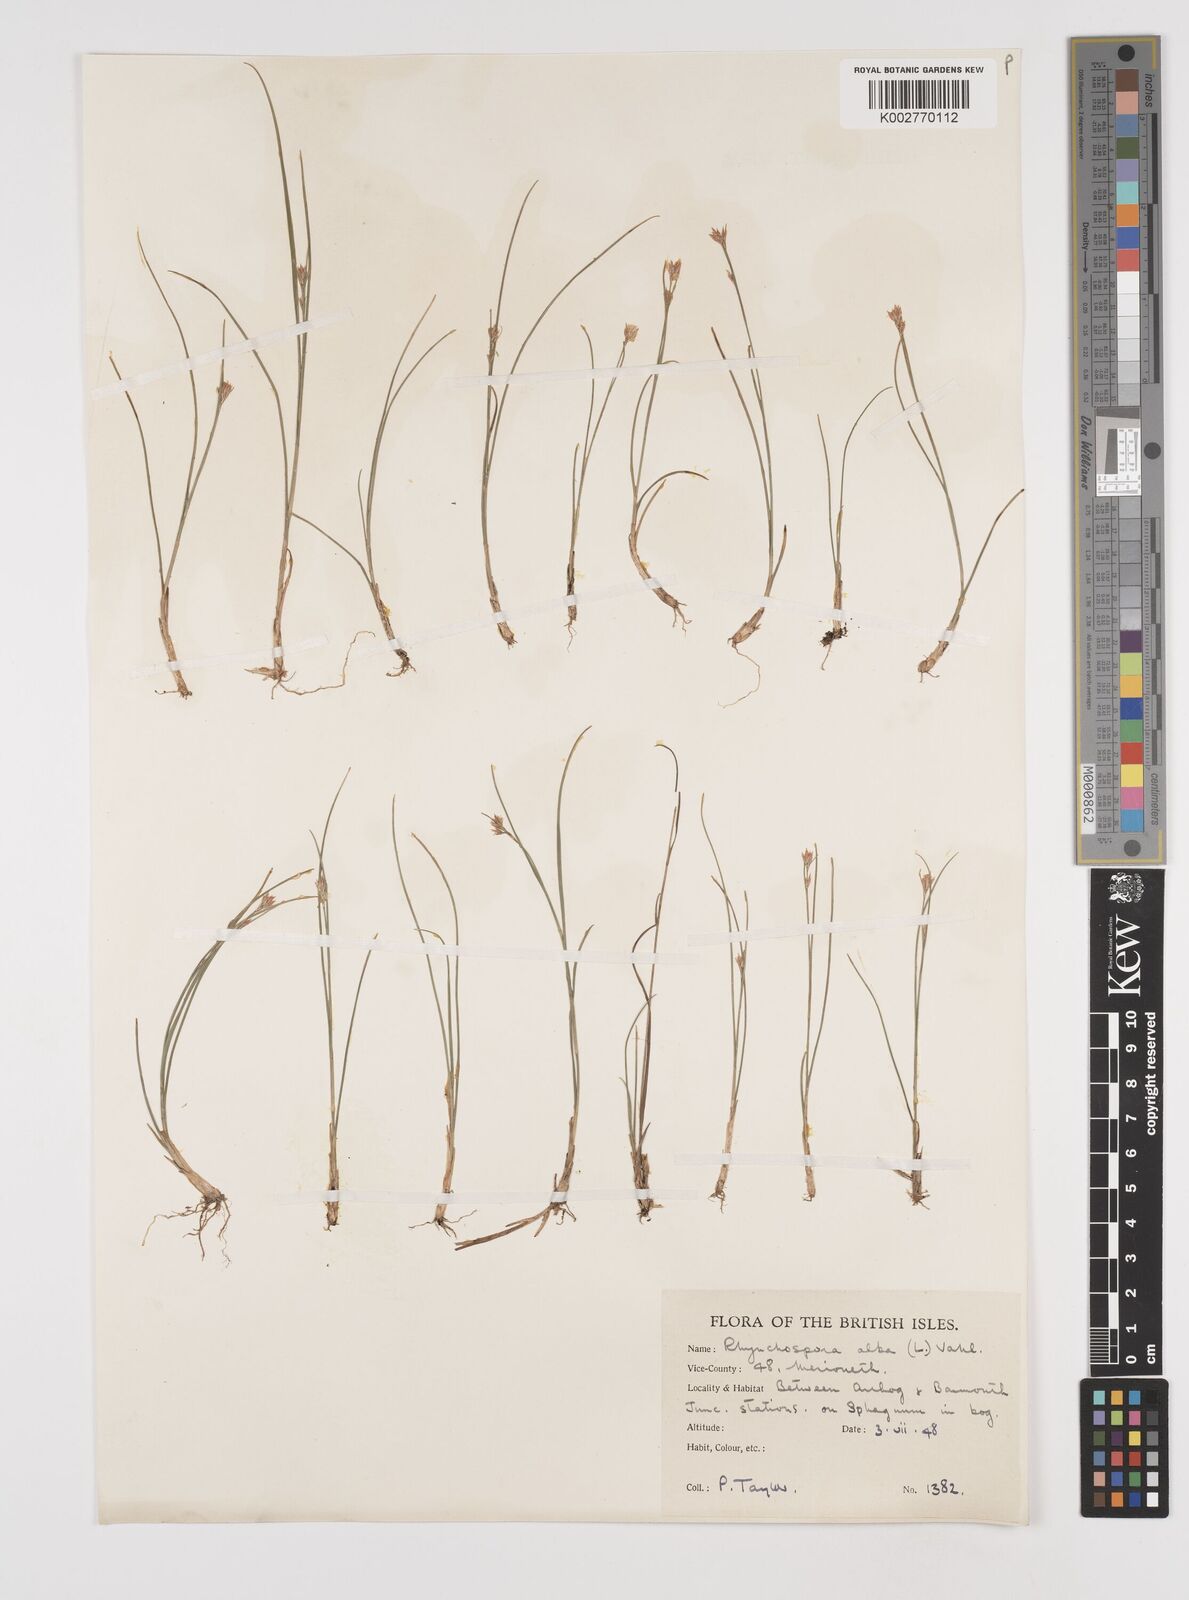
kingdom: Plantae
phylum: Tracheophyta
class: Liliopsida
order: Poales
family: Cyperaceae
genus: Rhynchospora
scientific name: Rhynchospora alba
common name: White beak-sedge
